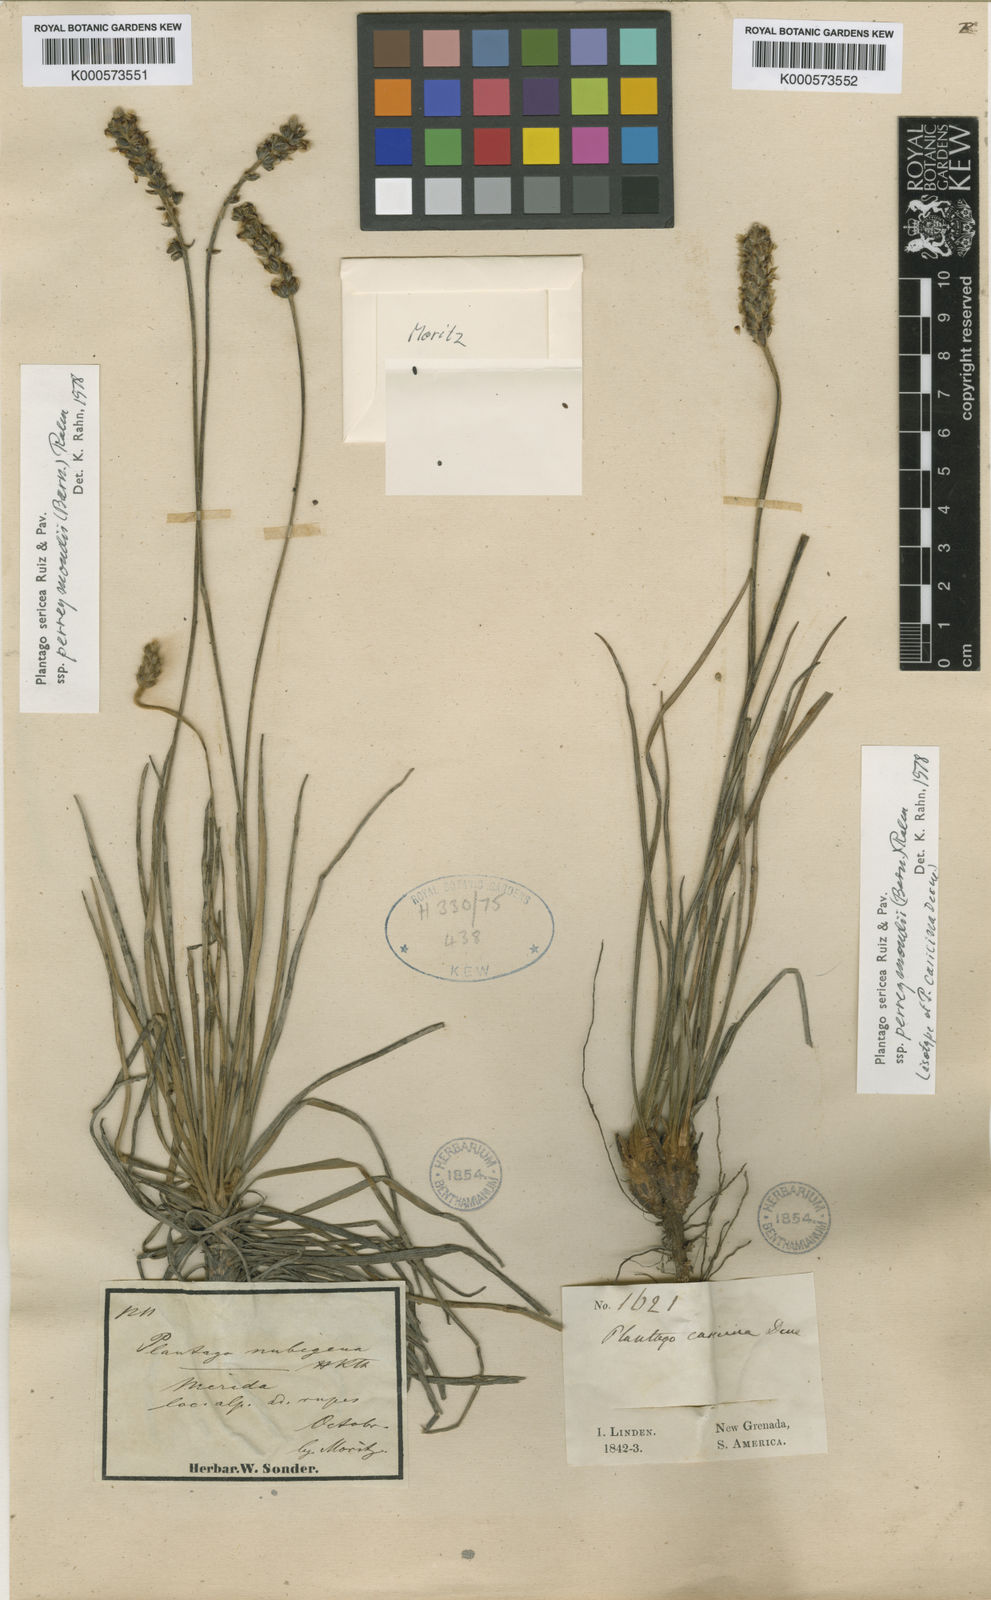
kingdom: Plantae
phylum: Tracheophyta
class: Magnoliopsida
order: Lamiales
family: Plantaginaceae
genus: Plantago
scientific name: Plantago sericea
